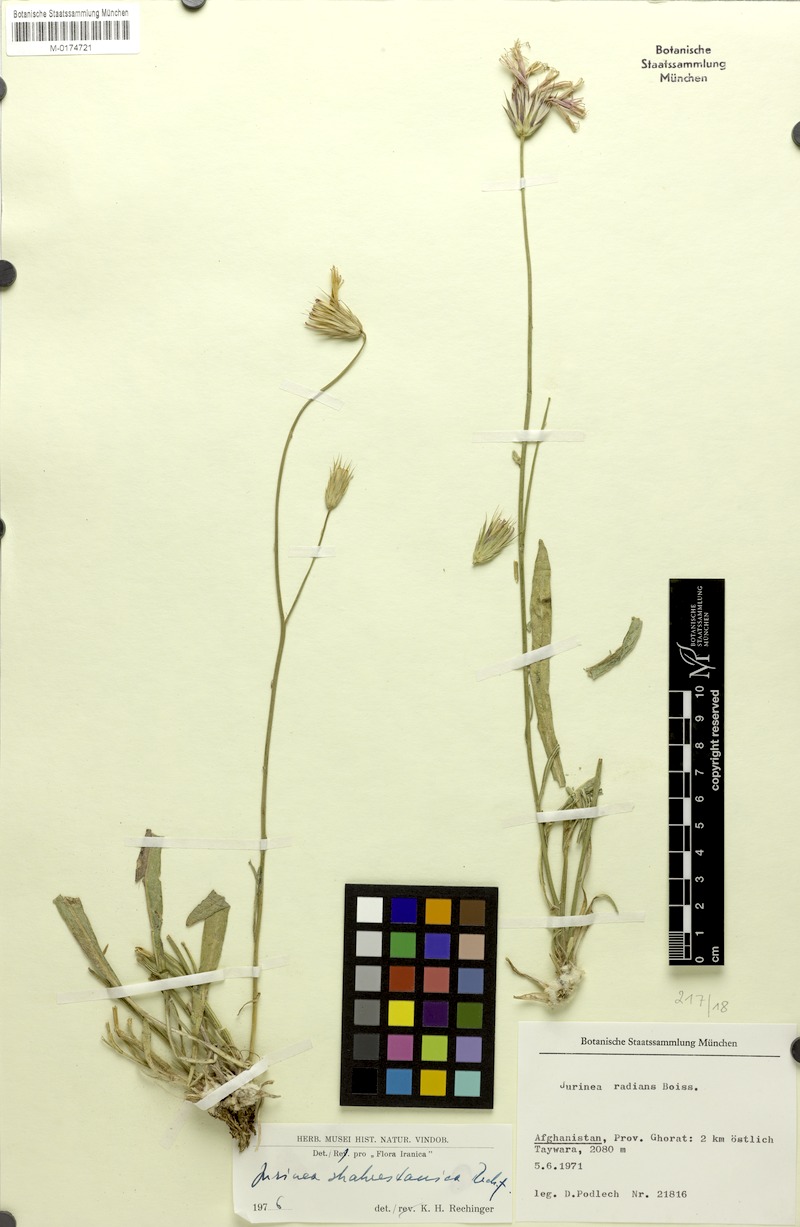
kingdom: Plantae
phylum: Tracheophyta
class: Magnoliopsida
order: Asterales
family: Asteraceae
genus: Jurinea
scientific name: Jurinea shahrestanica
